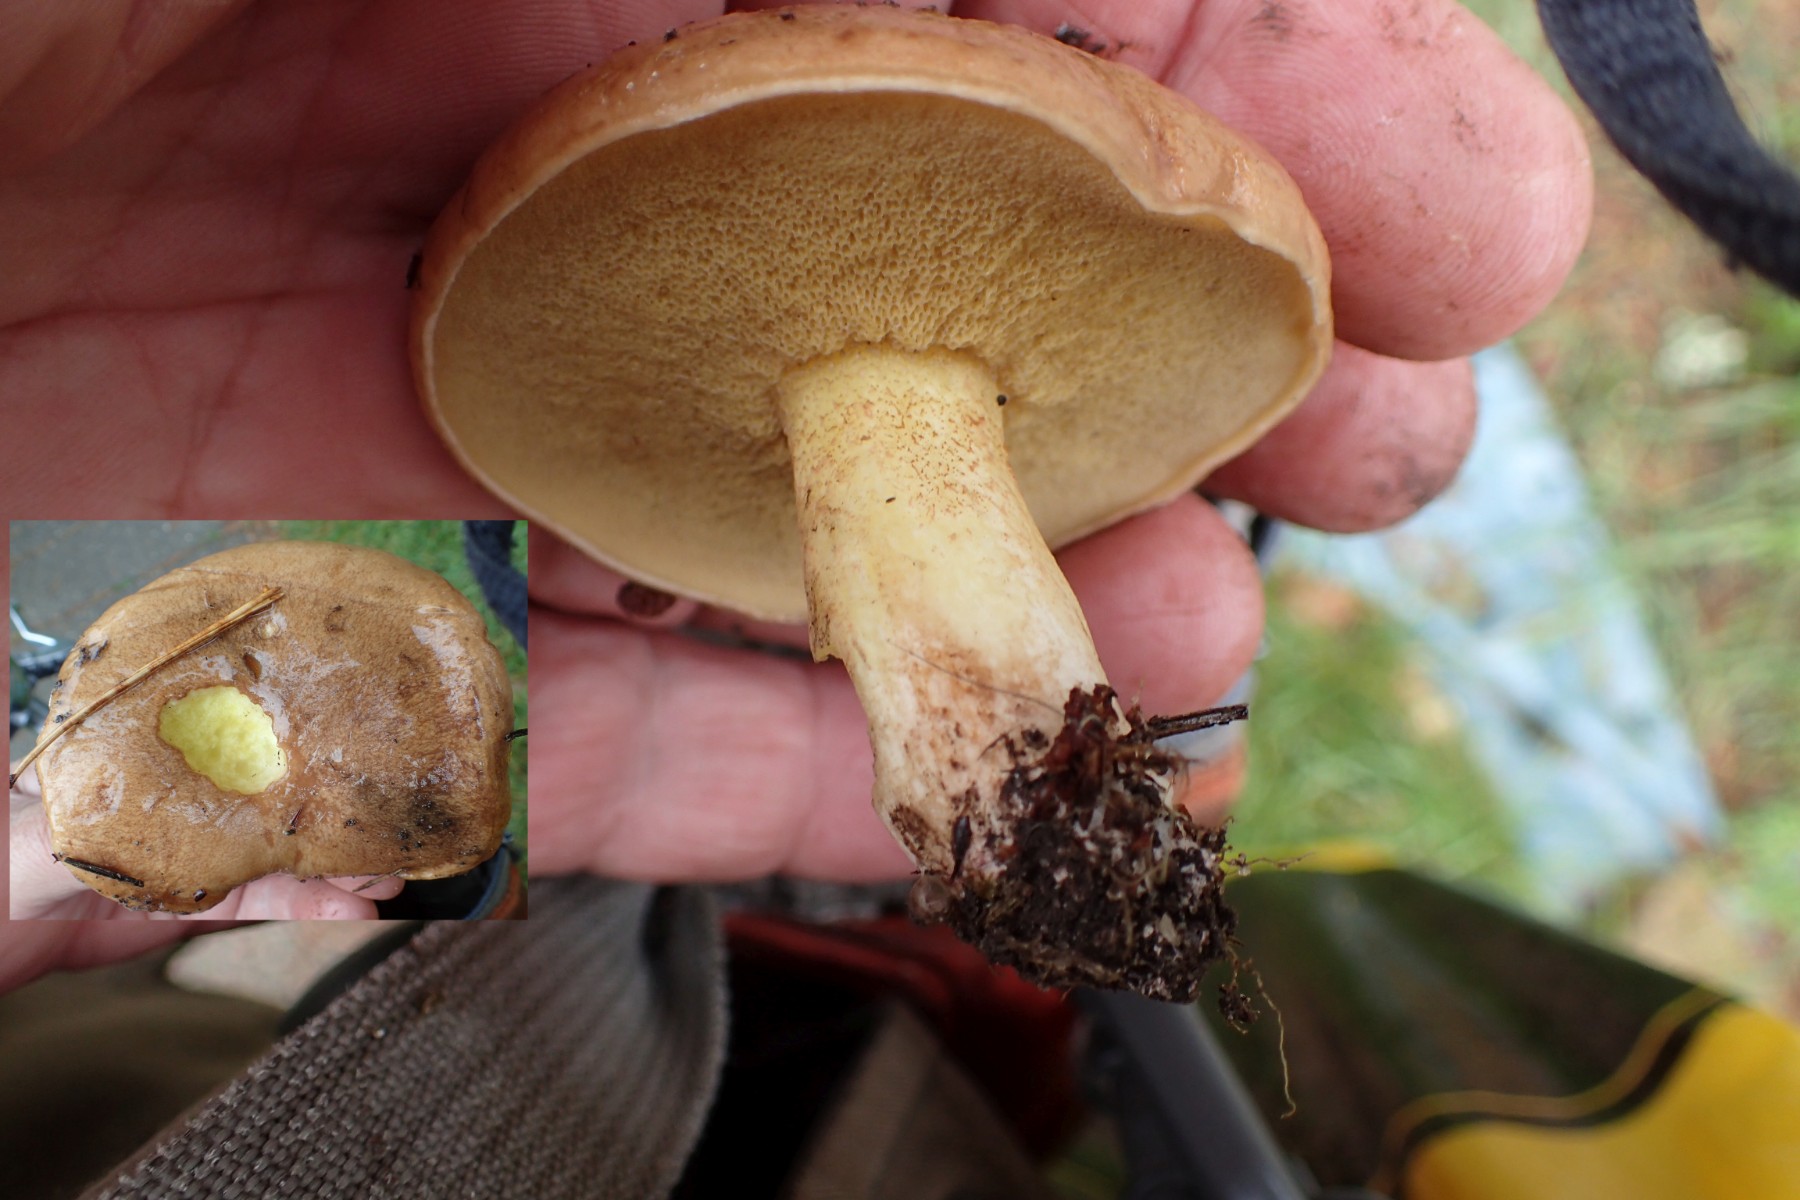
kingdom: Fungi
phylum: Basidiomycota
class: Agaricomycetes
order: Boletales
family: Suillaceae
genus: Suillus
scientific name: Suillus granulatus
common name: kornet slimrørhat
